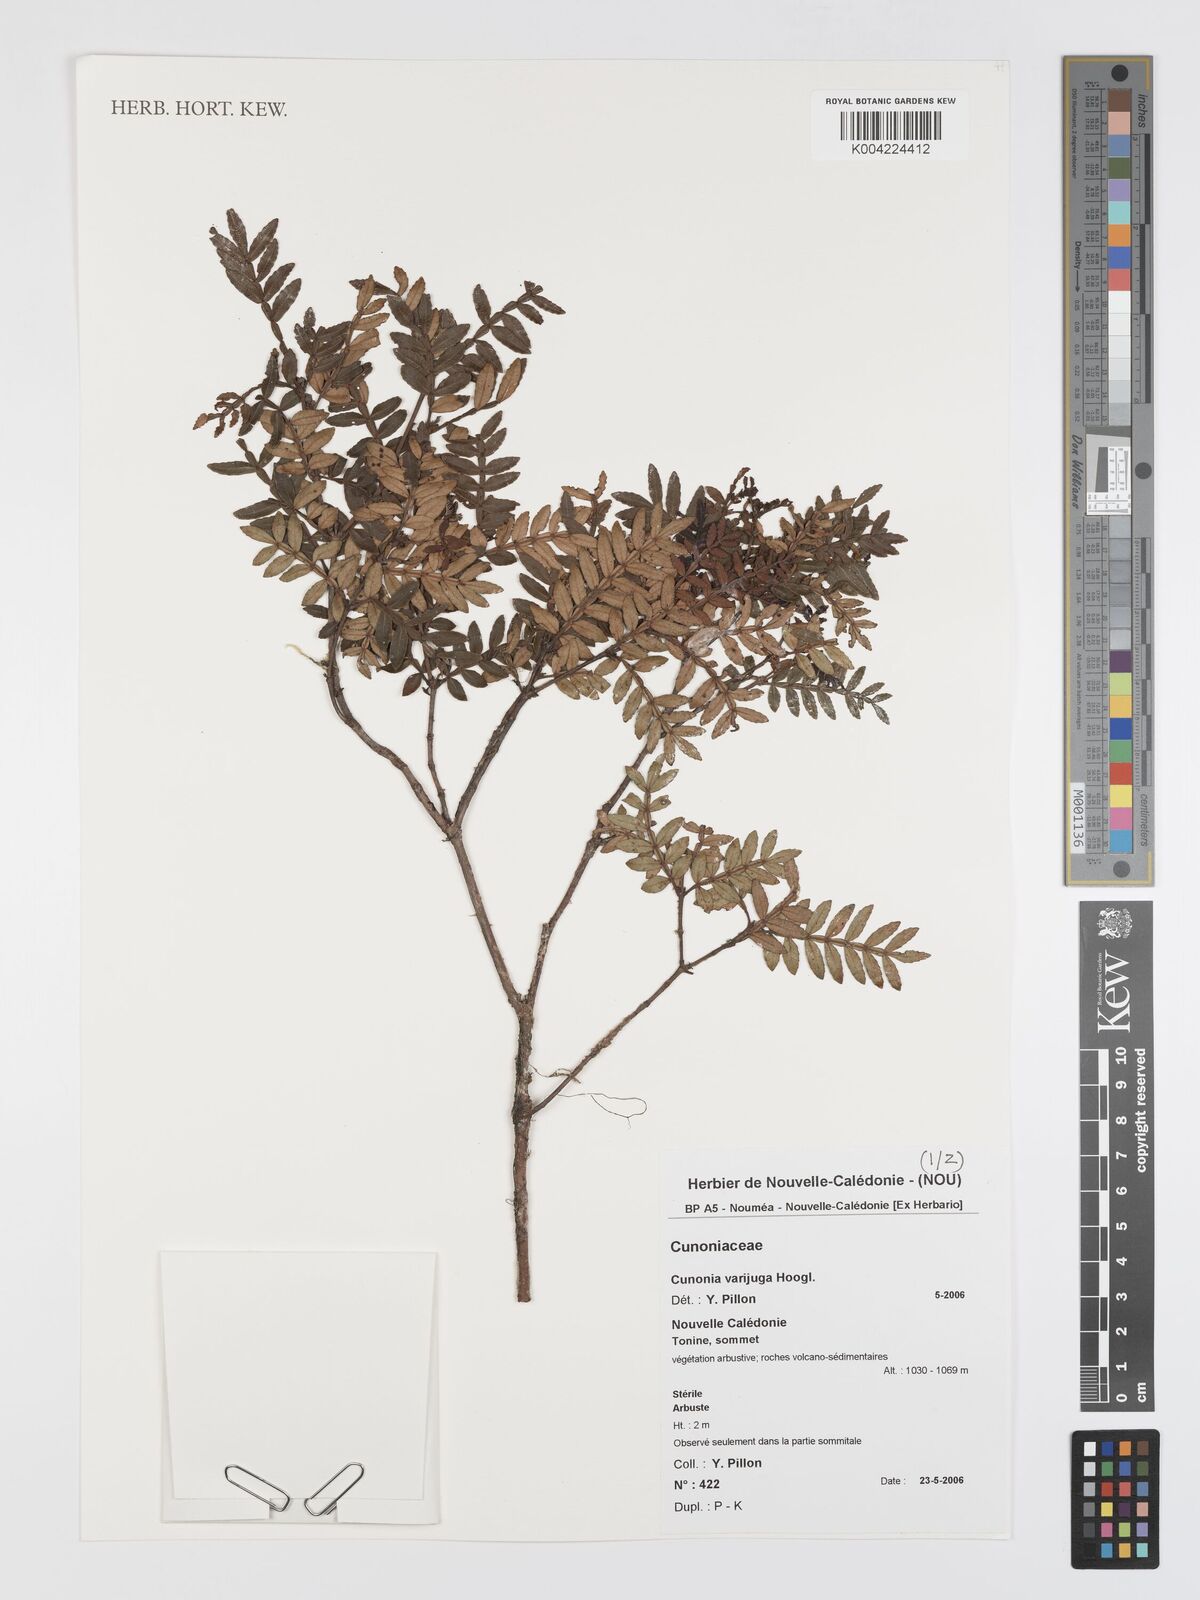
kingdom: Plantae
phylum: Tracheophyta
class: Magnoliopsida
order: Oxalidales
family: Cunoniaceae
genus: Cunonia
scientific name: Cunonia varijuga
